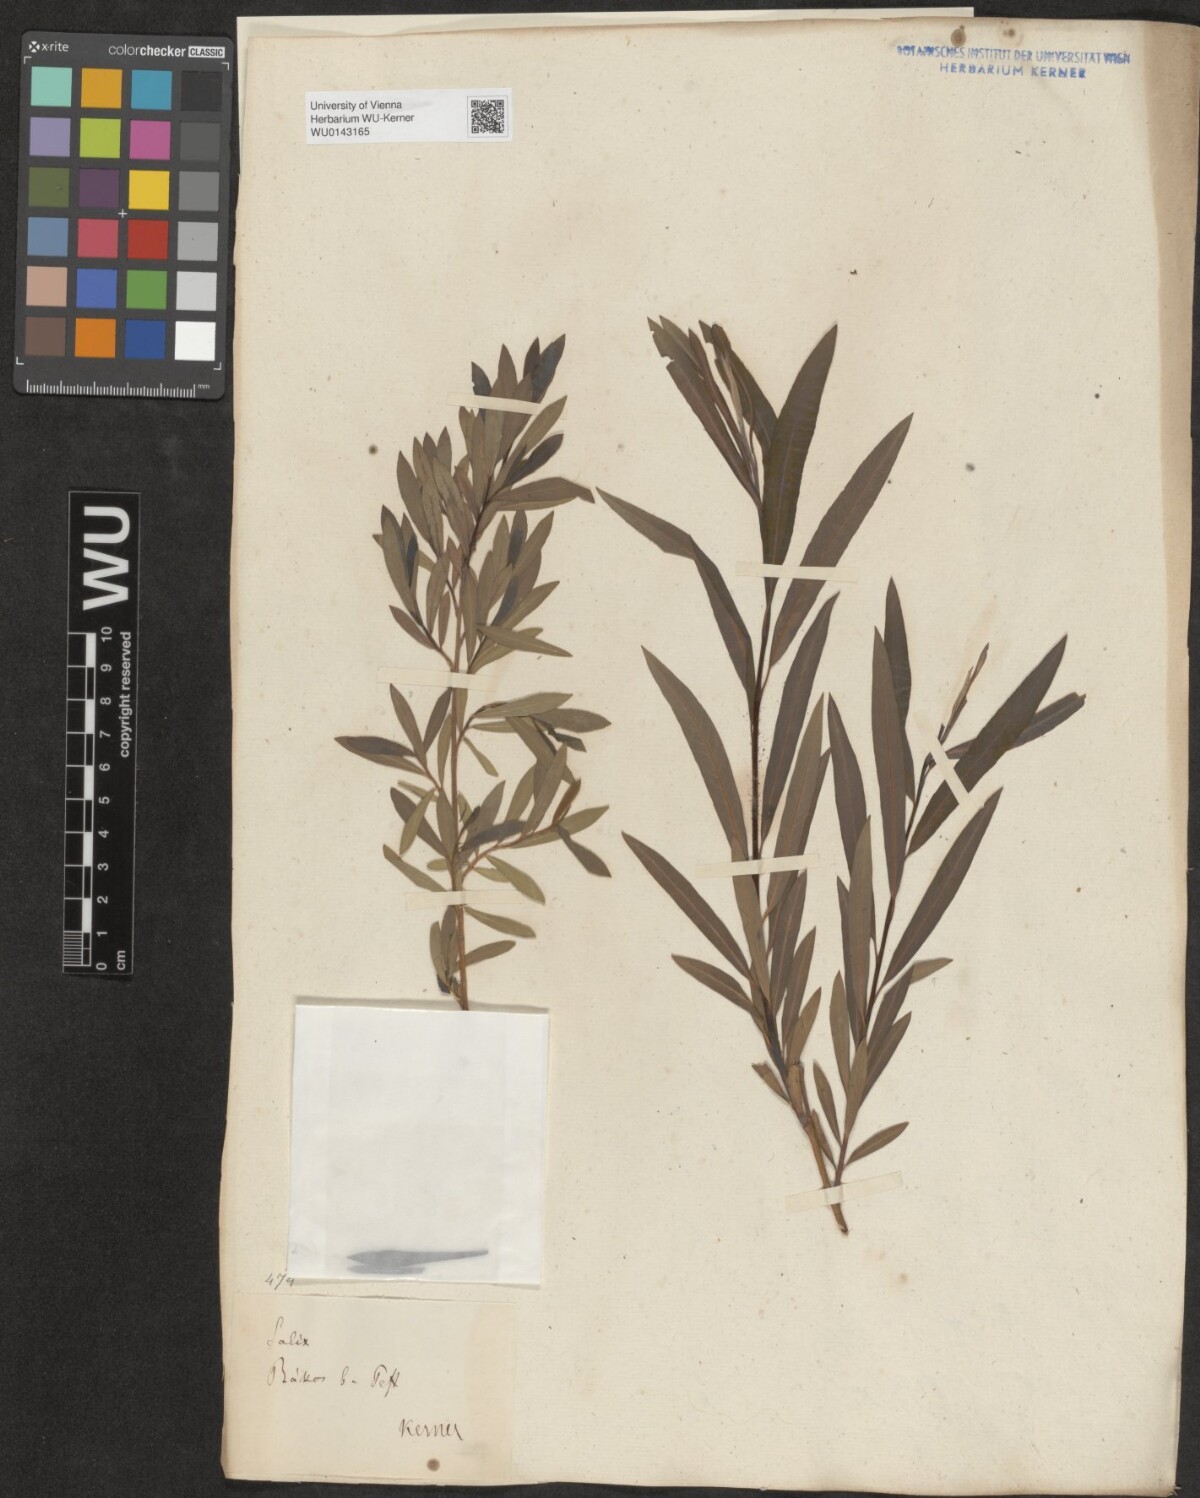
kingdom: Plantae
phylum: Tracheophyta
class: Magnoliopsida
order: Malpighiales
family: Salicaceae
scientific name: Salicaceae
